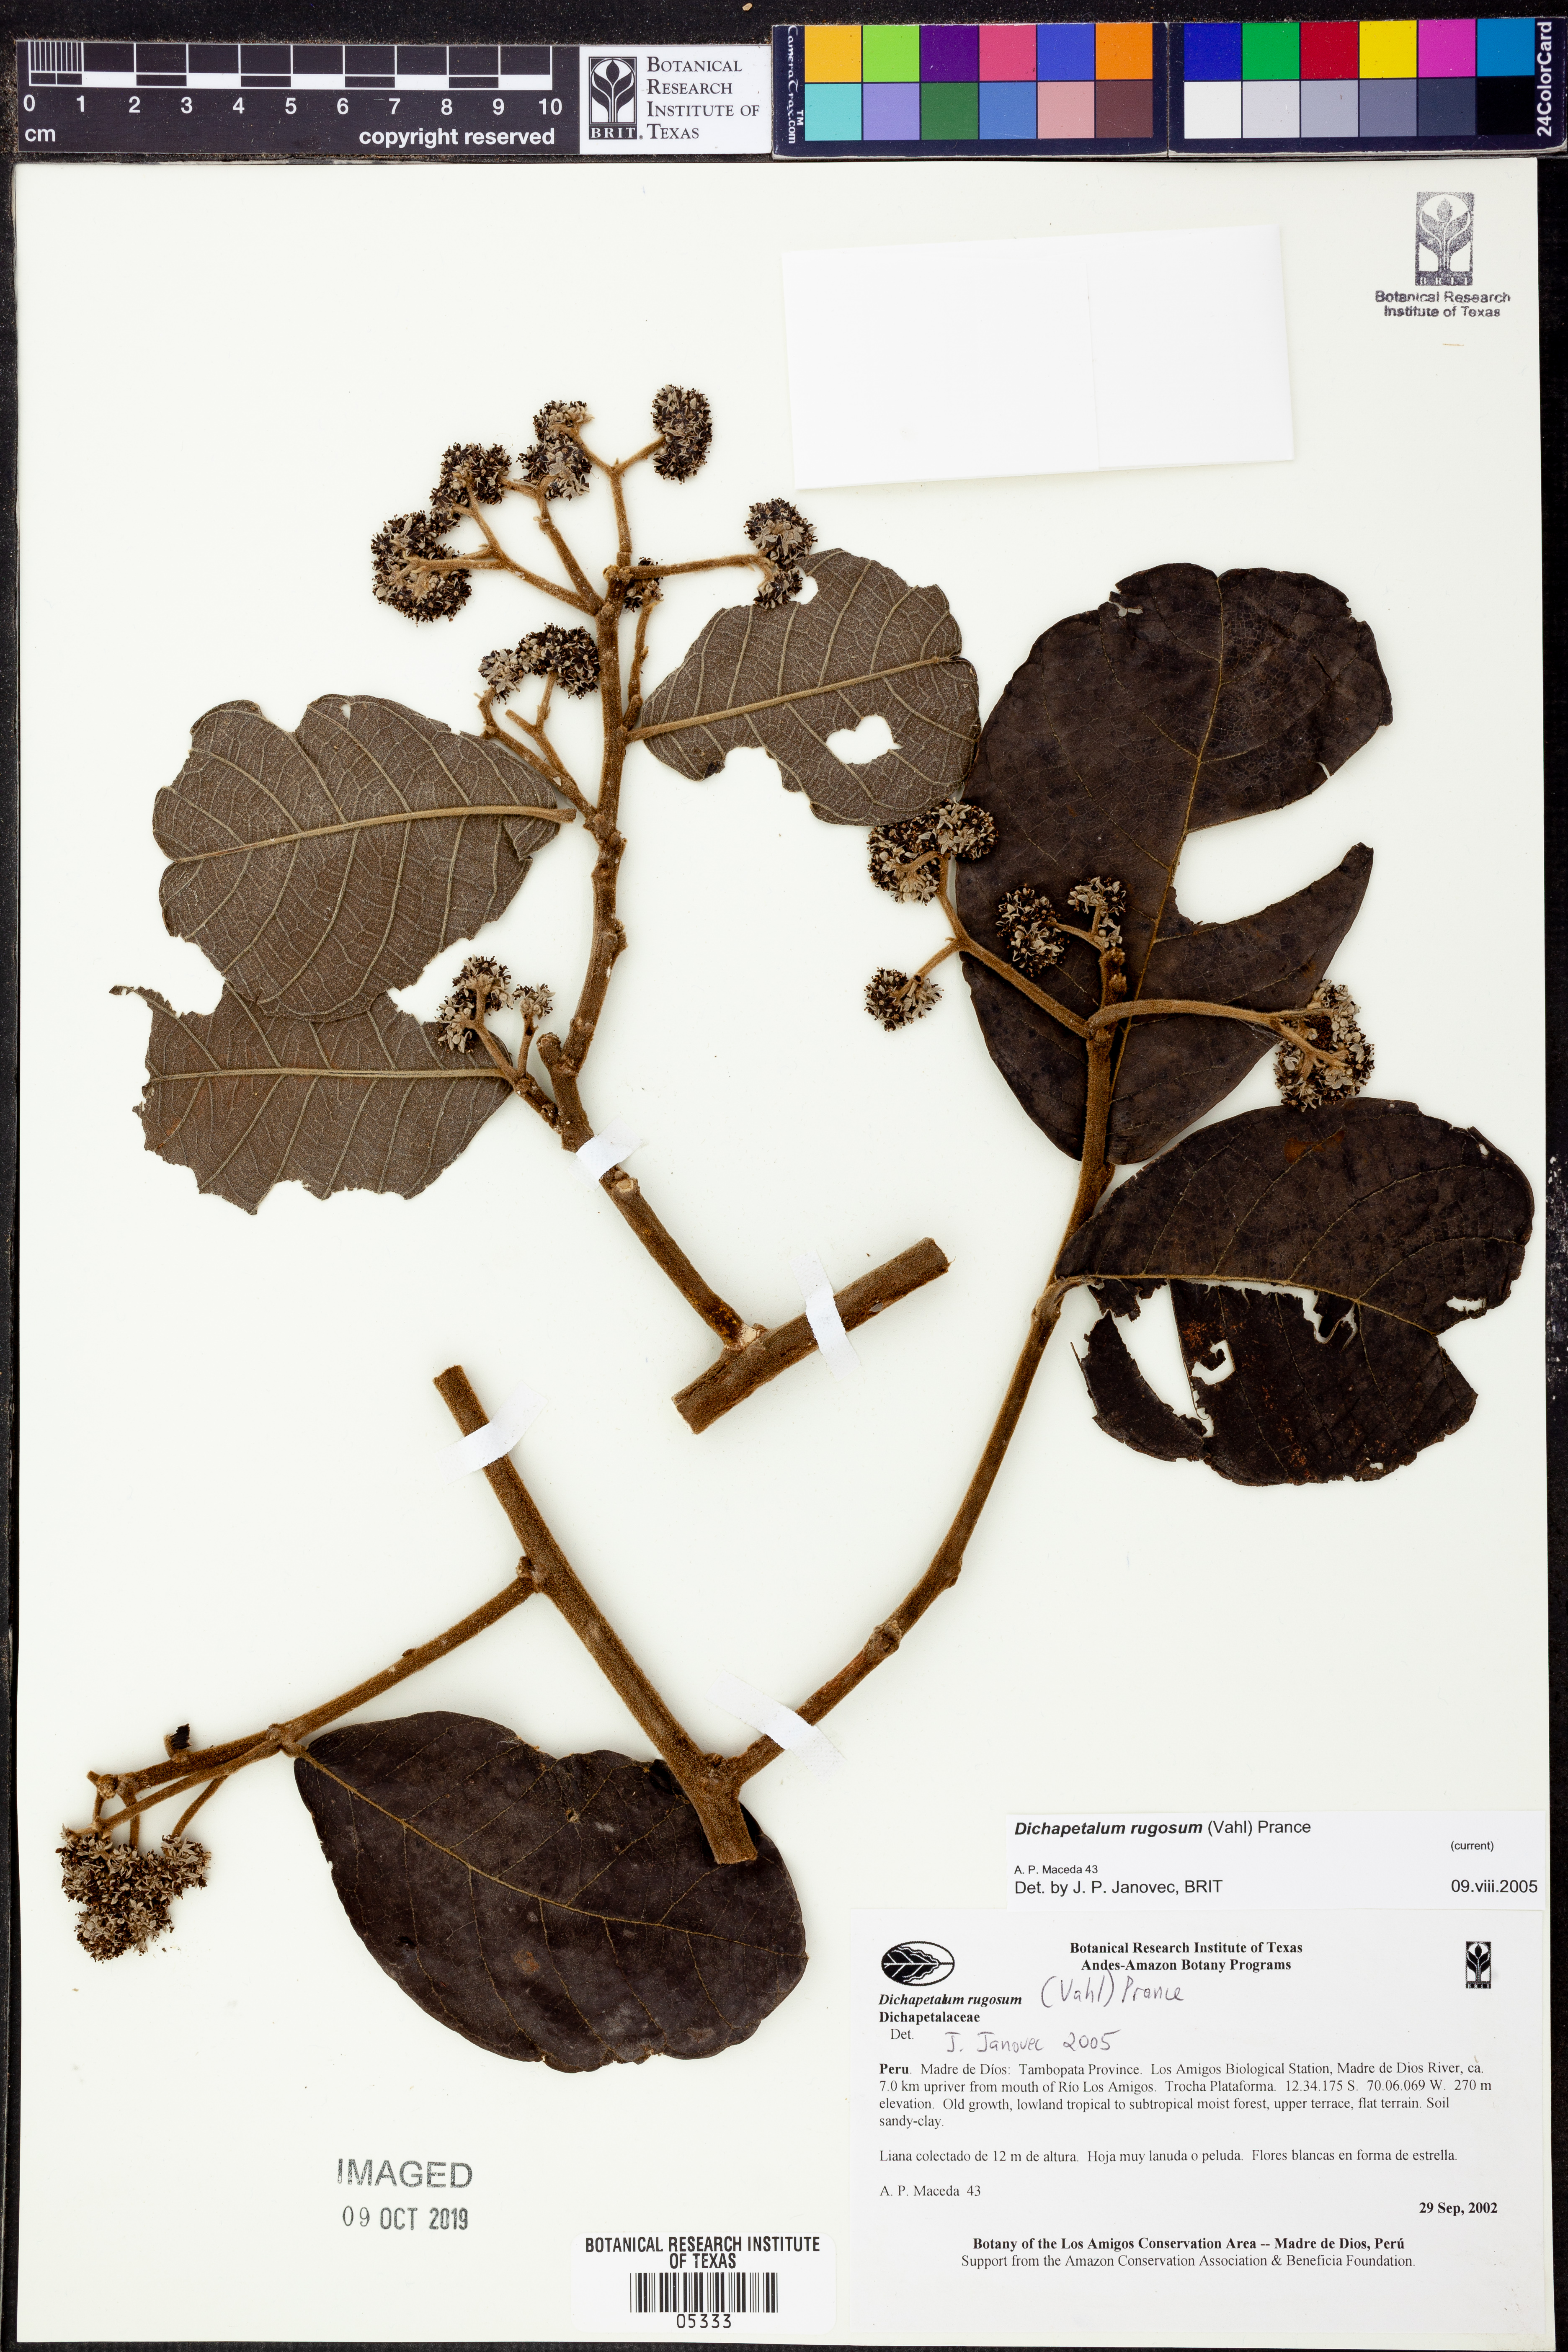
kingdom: Plantae
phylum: Tracheophyta
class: Magnoliopsida
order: Malpighiales
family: Dichapetalaceae
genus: Dichapetalum
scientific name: Dichapetalum
